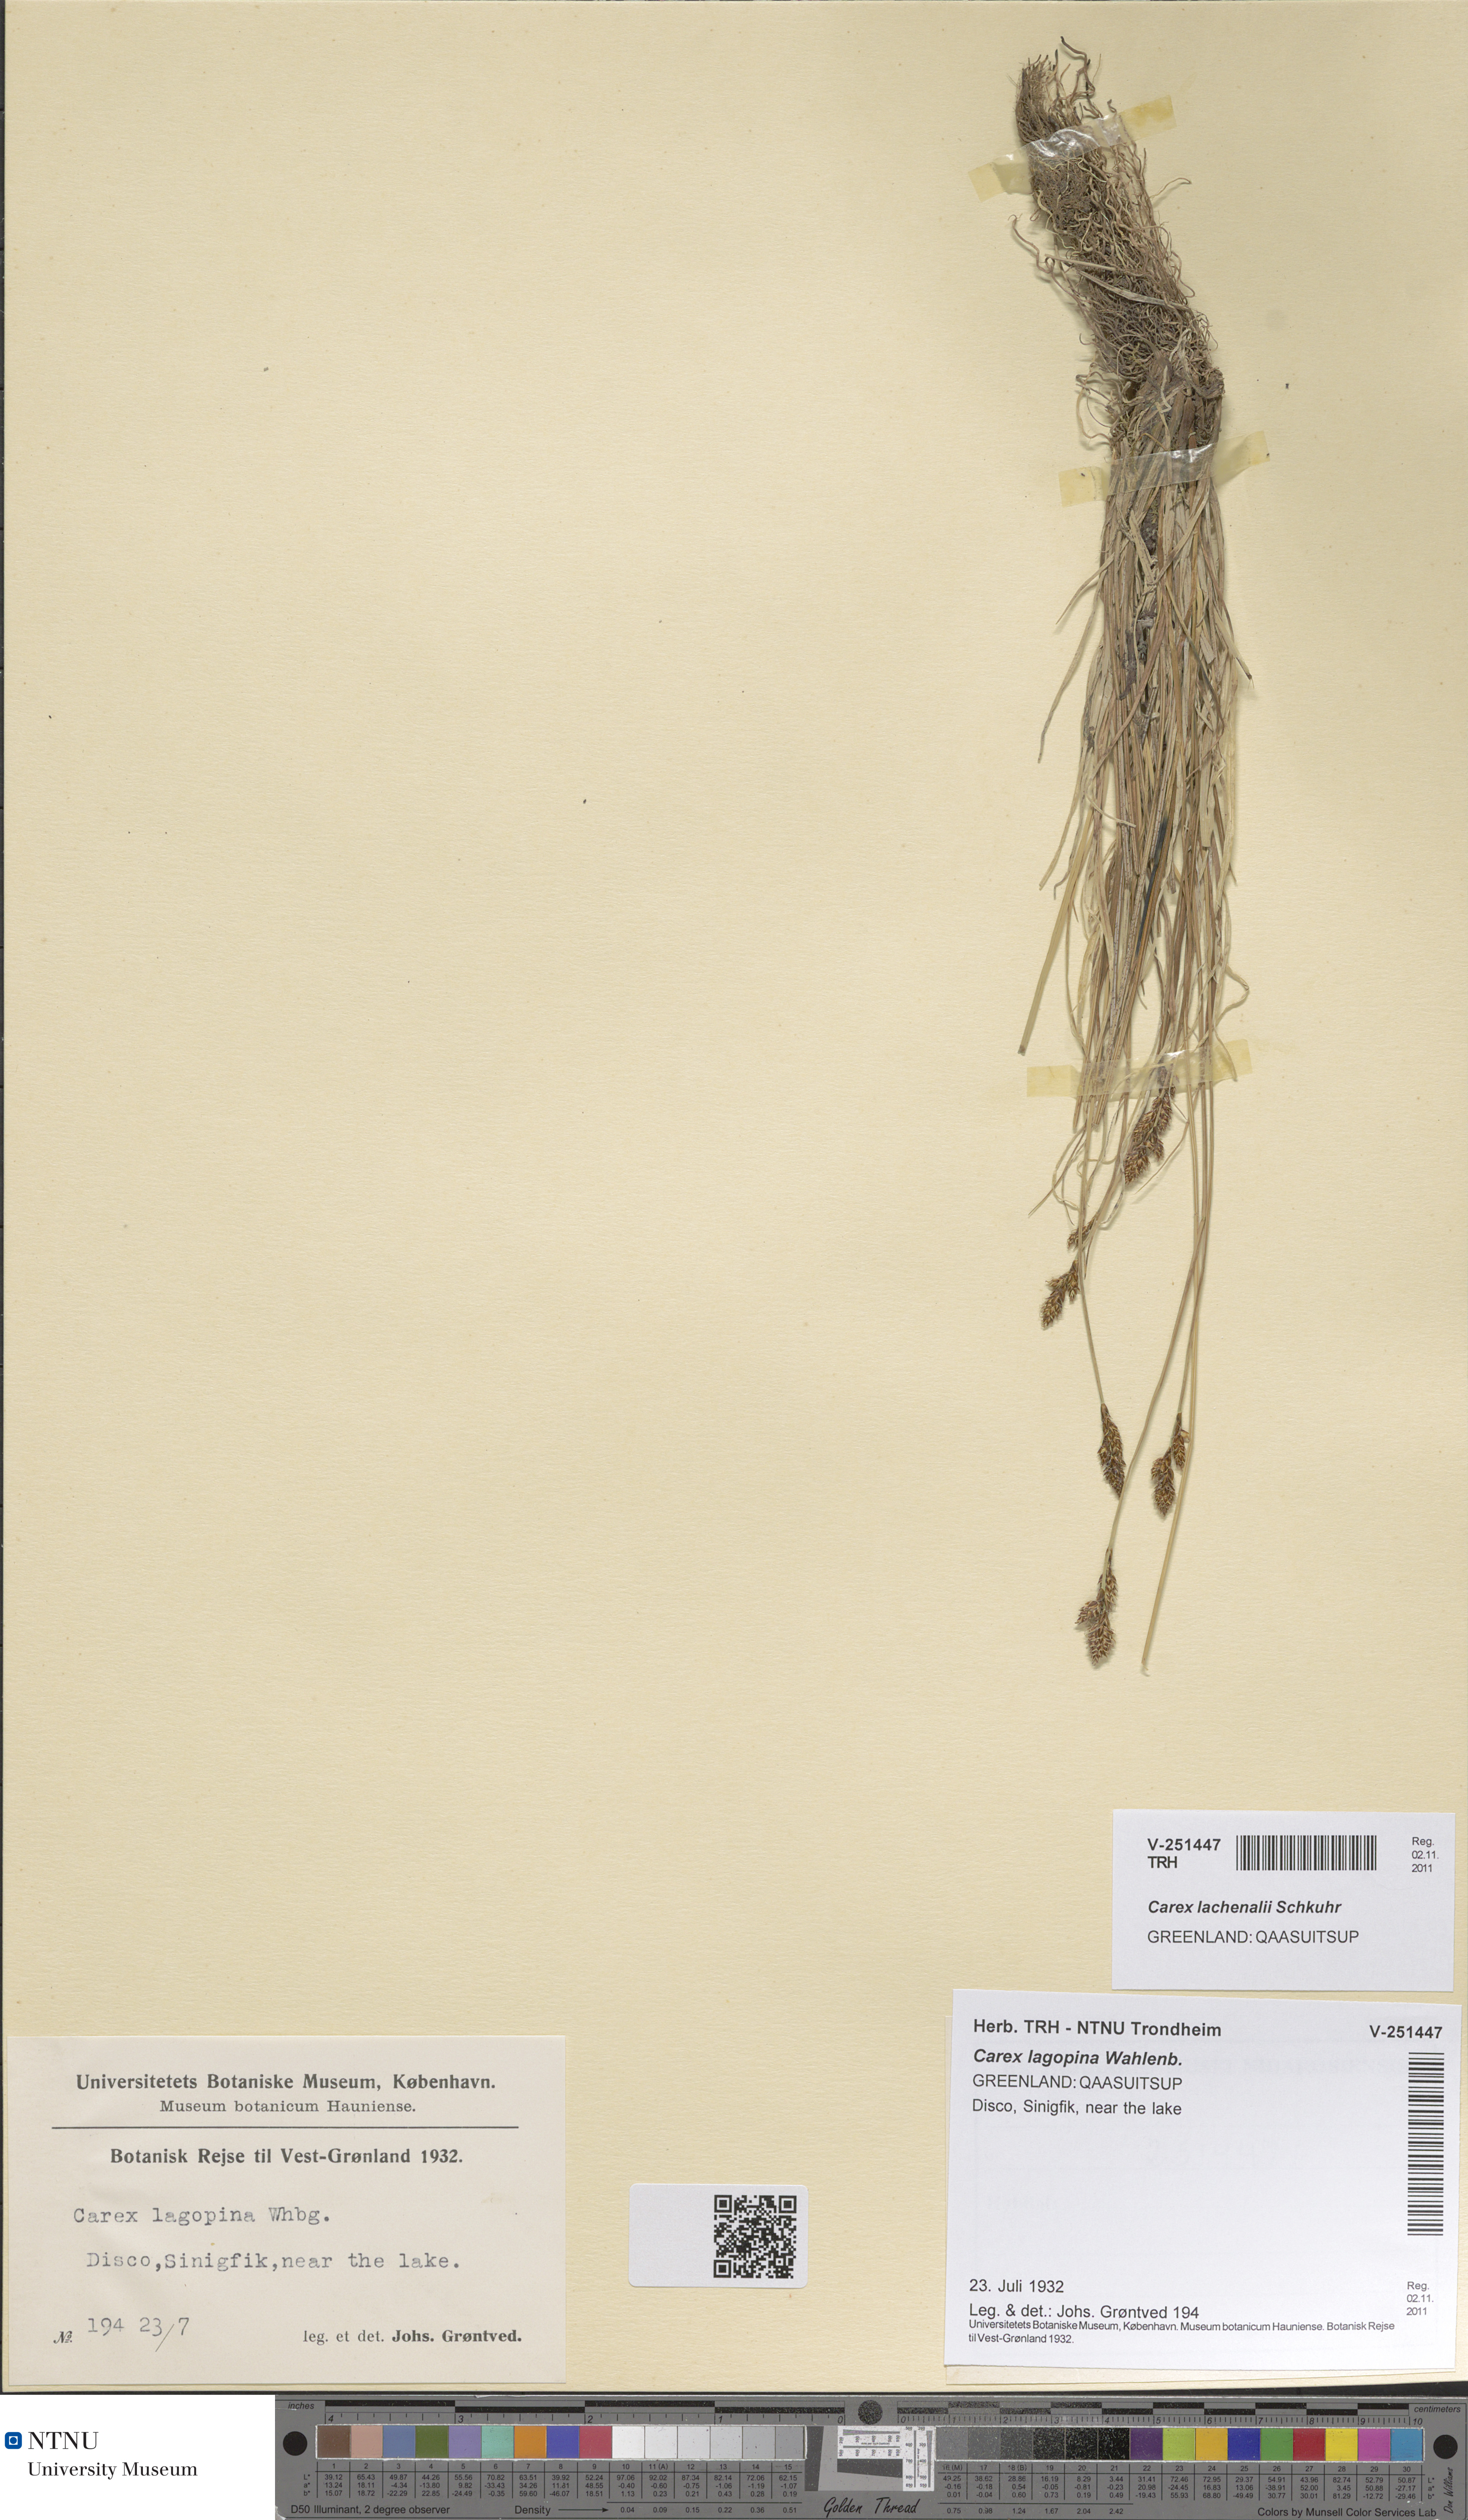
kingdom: Plantae
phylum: Tracheophyta
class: Liliopsida
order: Poales
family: Cyperaceae
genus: Carex
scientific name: Carex lachenalii
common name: Hare's-foot sedge
